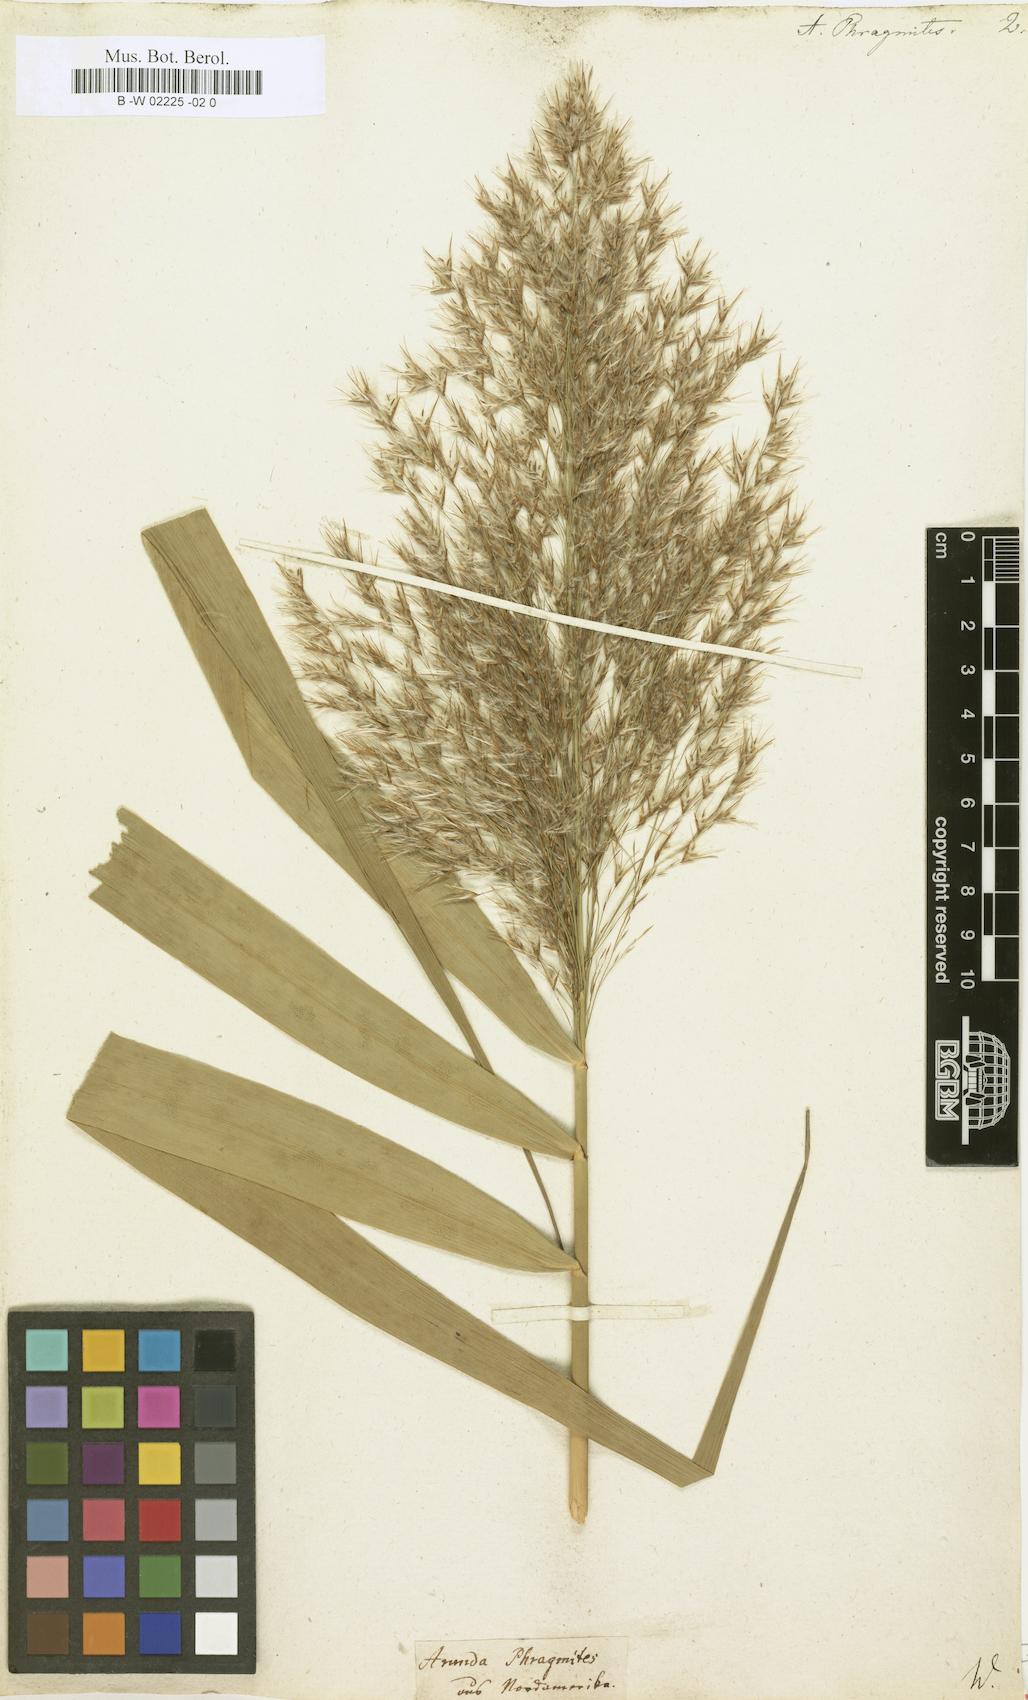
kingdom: Plantae
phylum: Tracheophyta
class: Liliopsida
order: Poales
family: Poaceae
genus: Phragmites
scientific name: Phragmites australis
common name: Common reed
